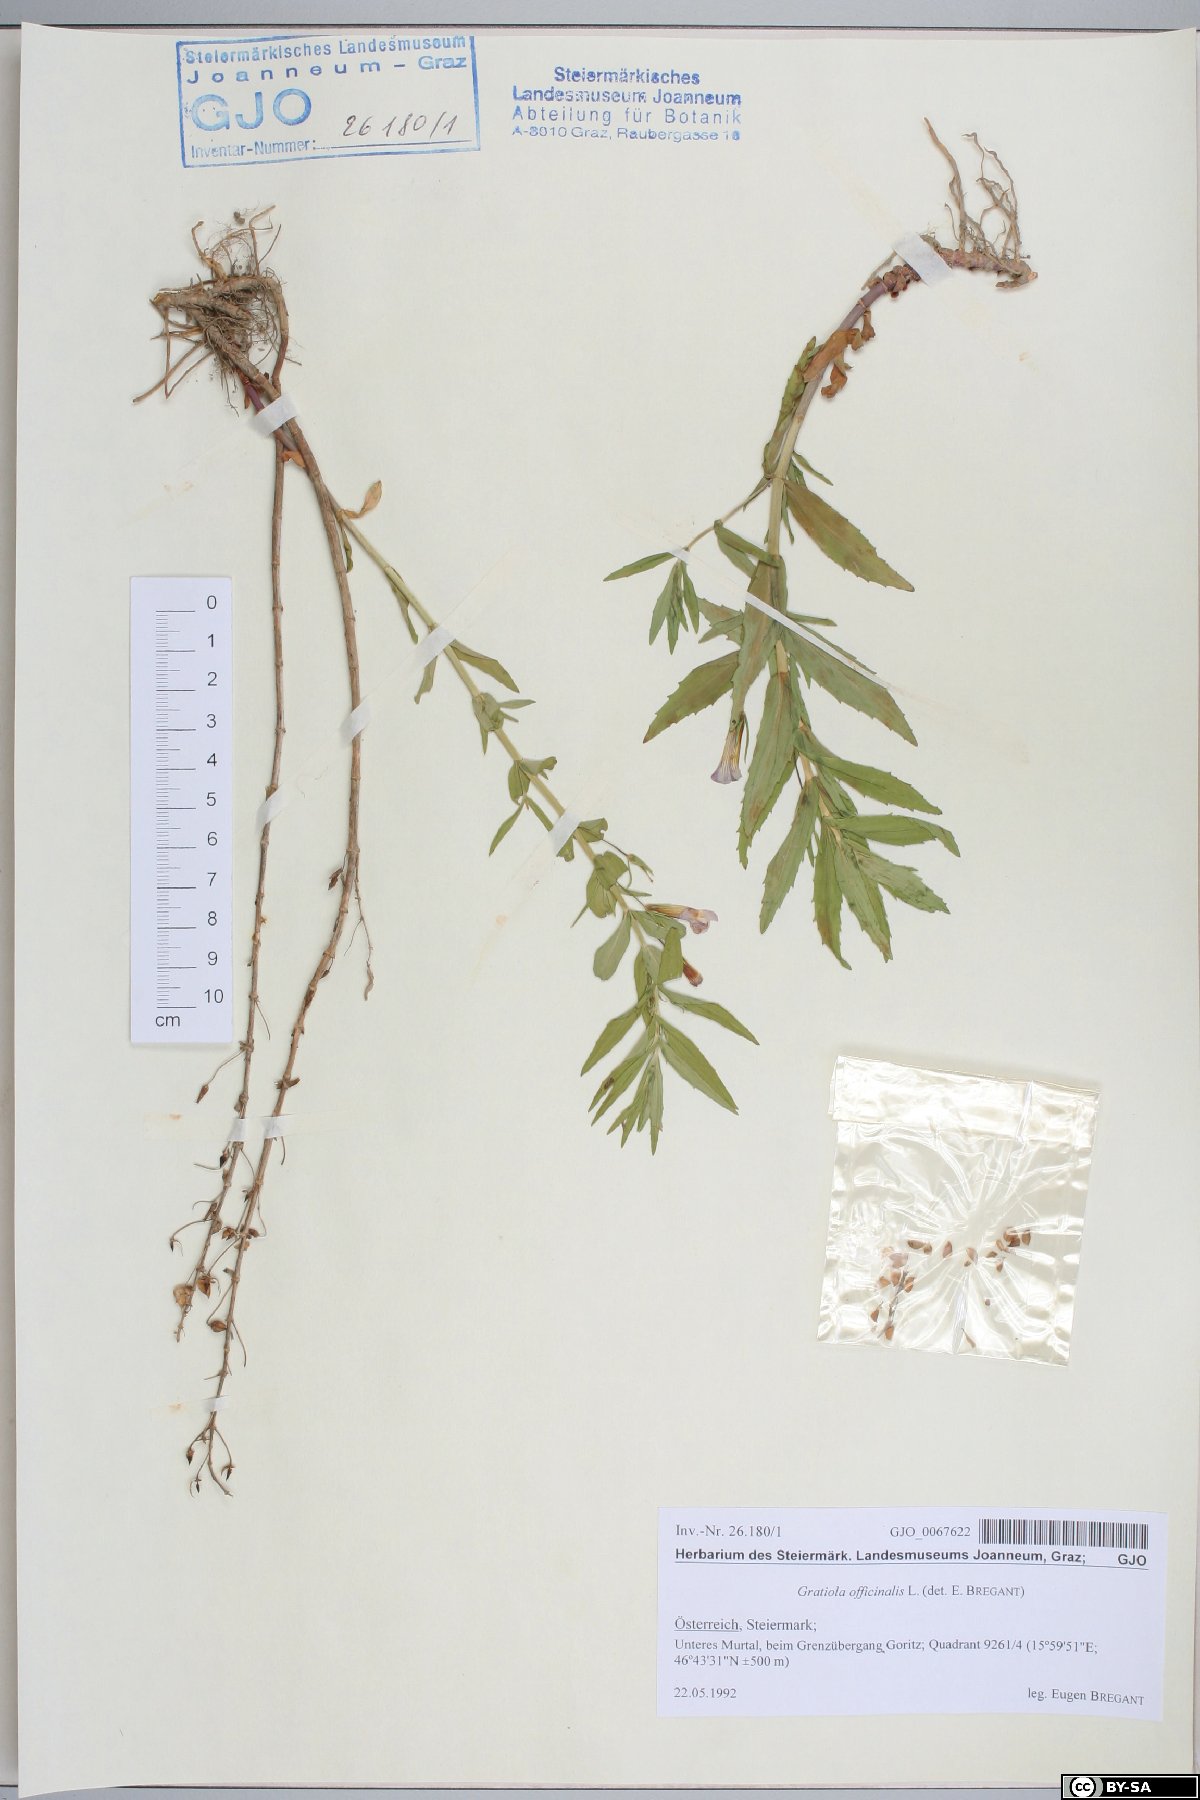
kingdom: Plantae
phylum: Tracheophyta
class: Magnoliopsida
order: Lamiales
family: Plantaginaceae
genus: Gratiola
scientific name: Gratiola officinalis
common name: Gratiola
